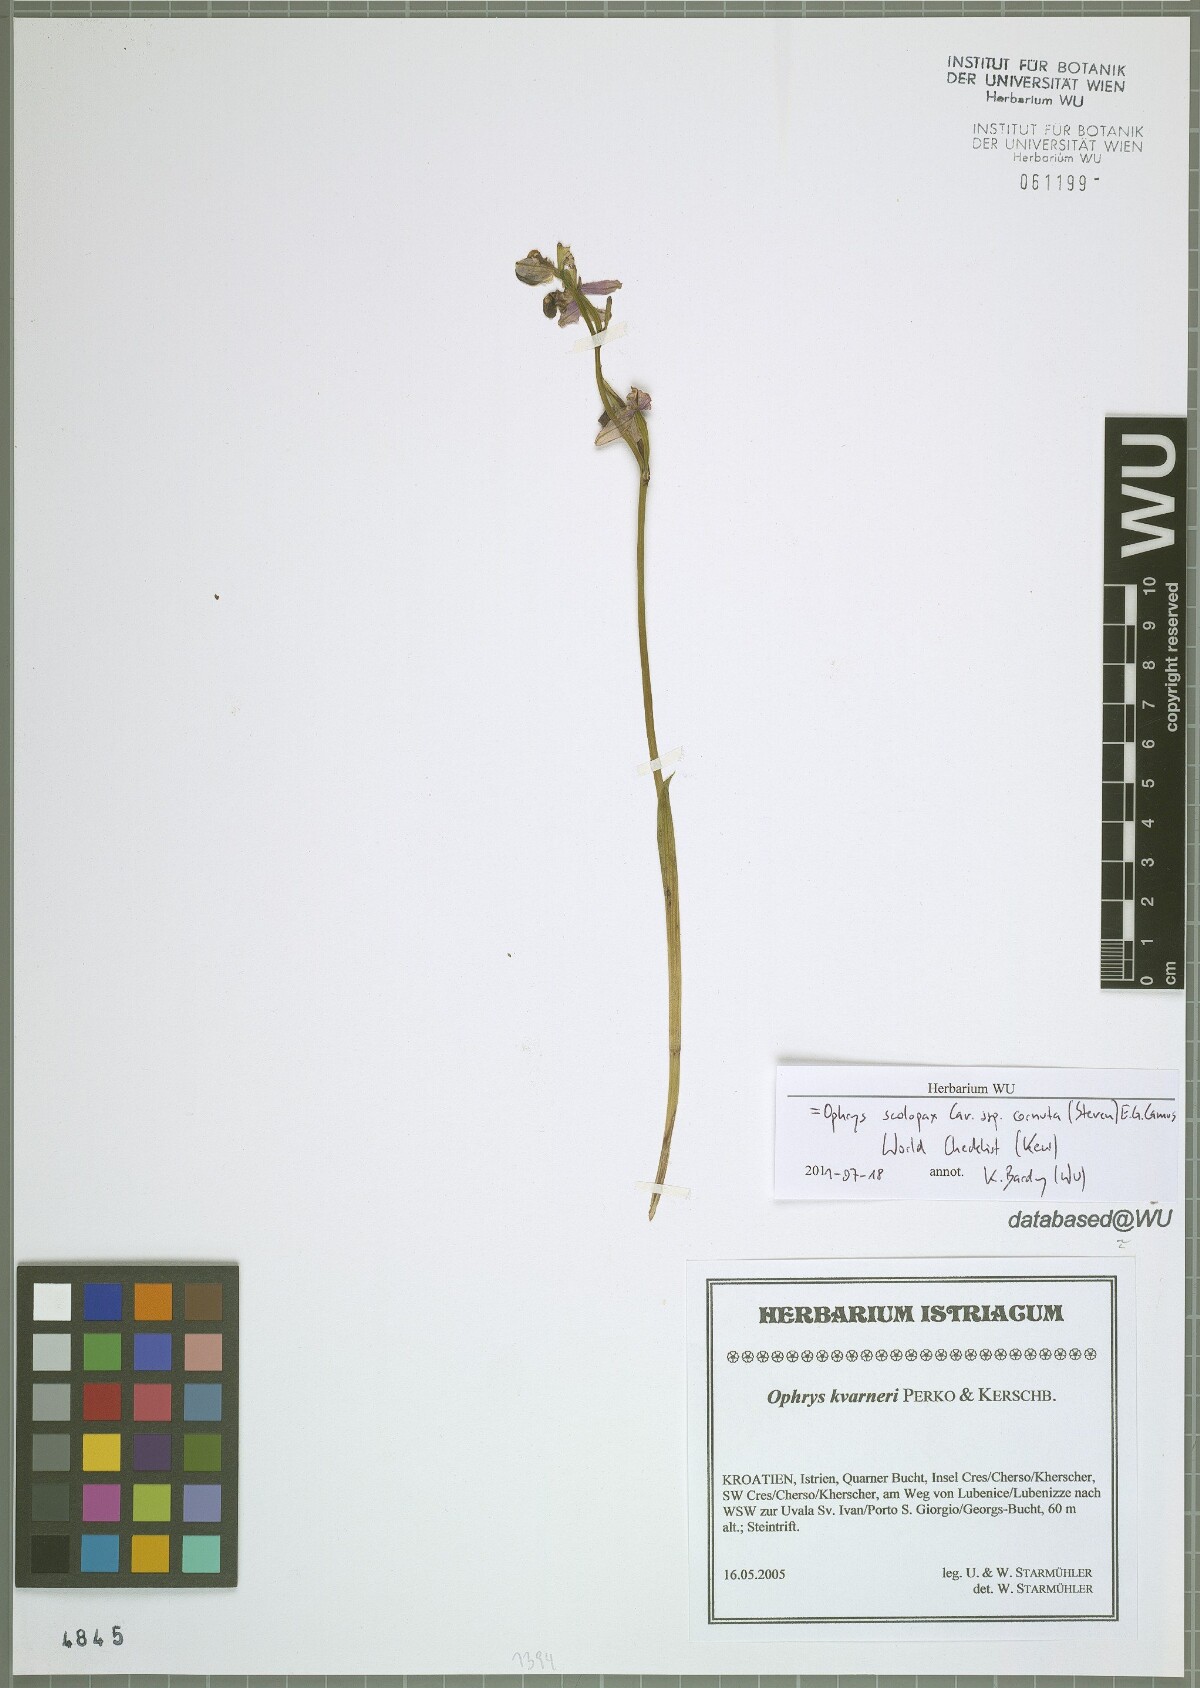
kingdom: Plantae
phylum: Tracheophyta
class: Liliopsida
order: Asparagales
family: Orchidaceae
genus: Ophrys
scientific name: Ophrys scolopax
